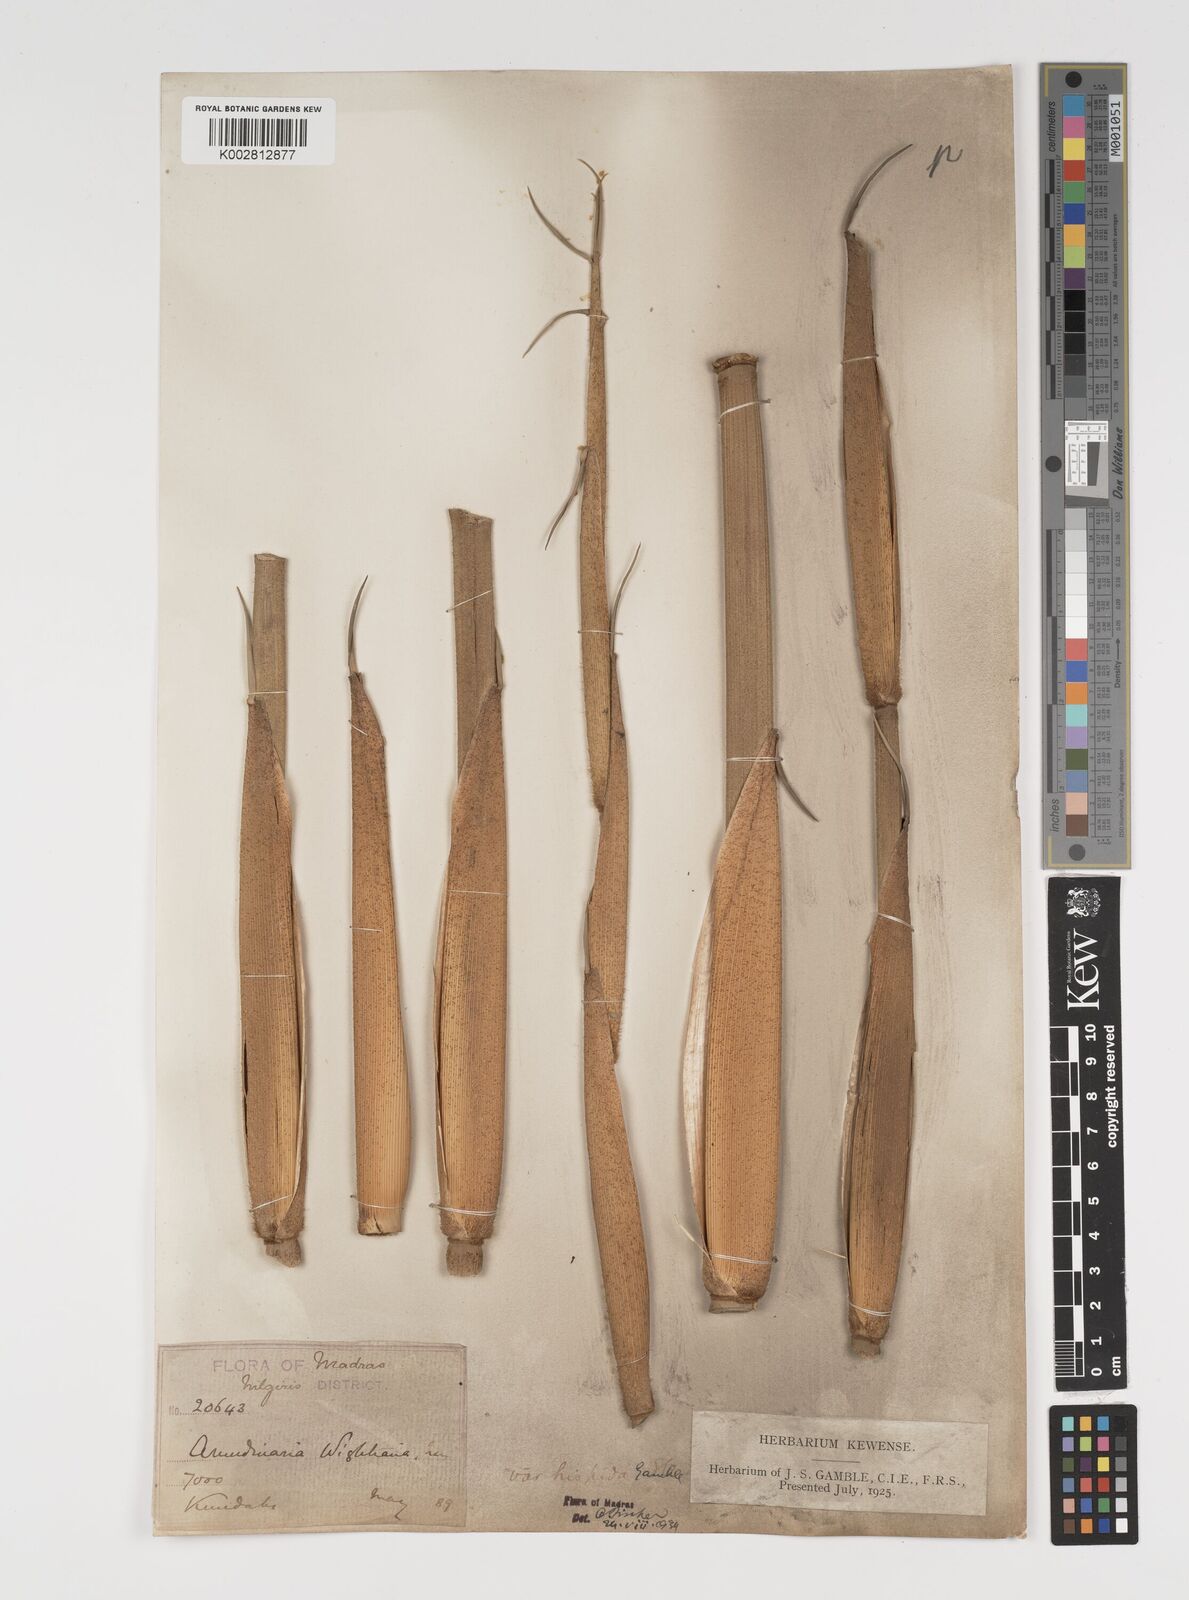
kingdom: Plantae
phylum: Tracheophyta
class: Liliopsida
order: Poales
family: Poaceae
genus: Kuruna
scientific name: Kuruna wightiana
